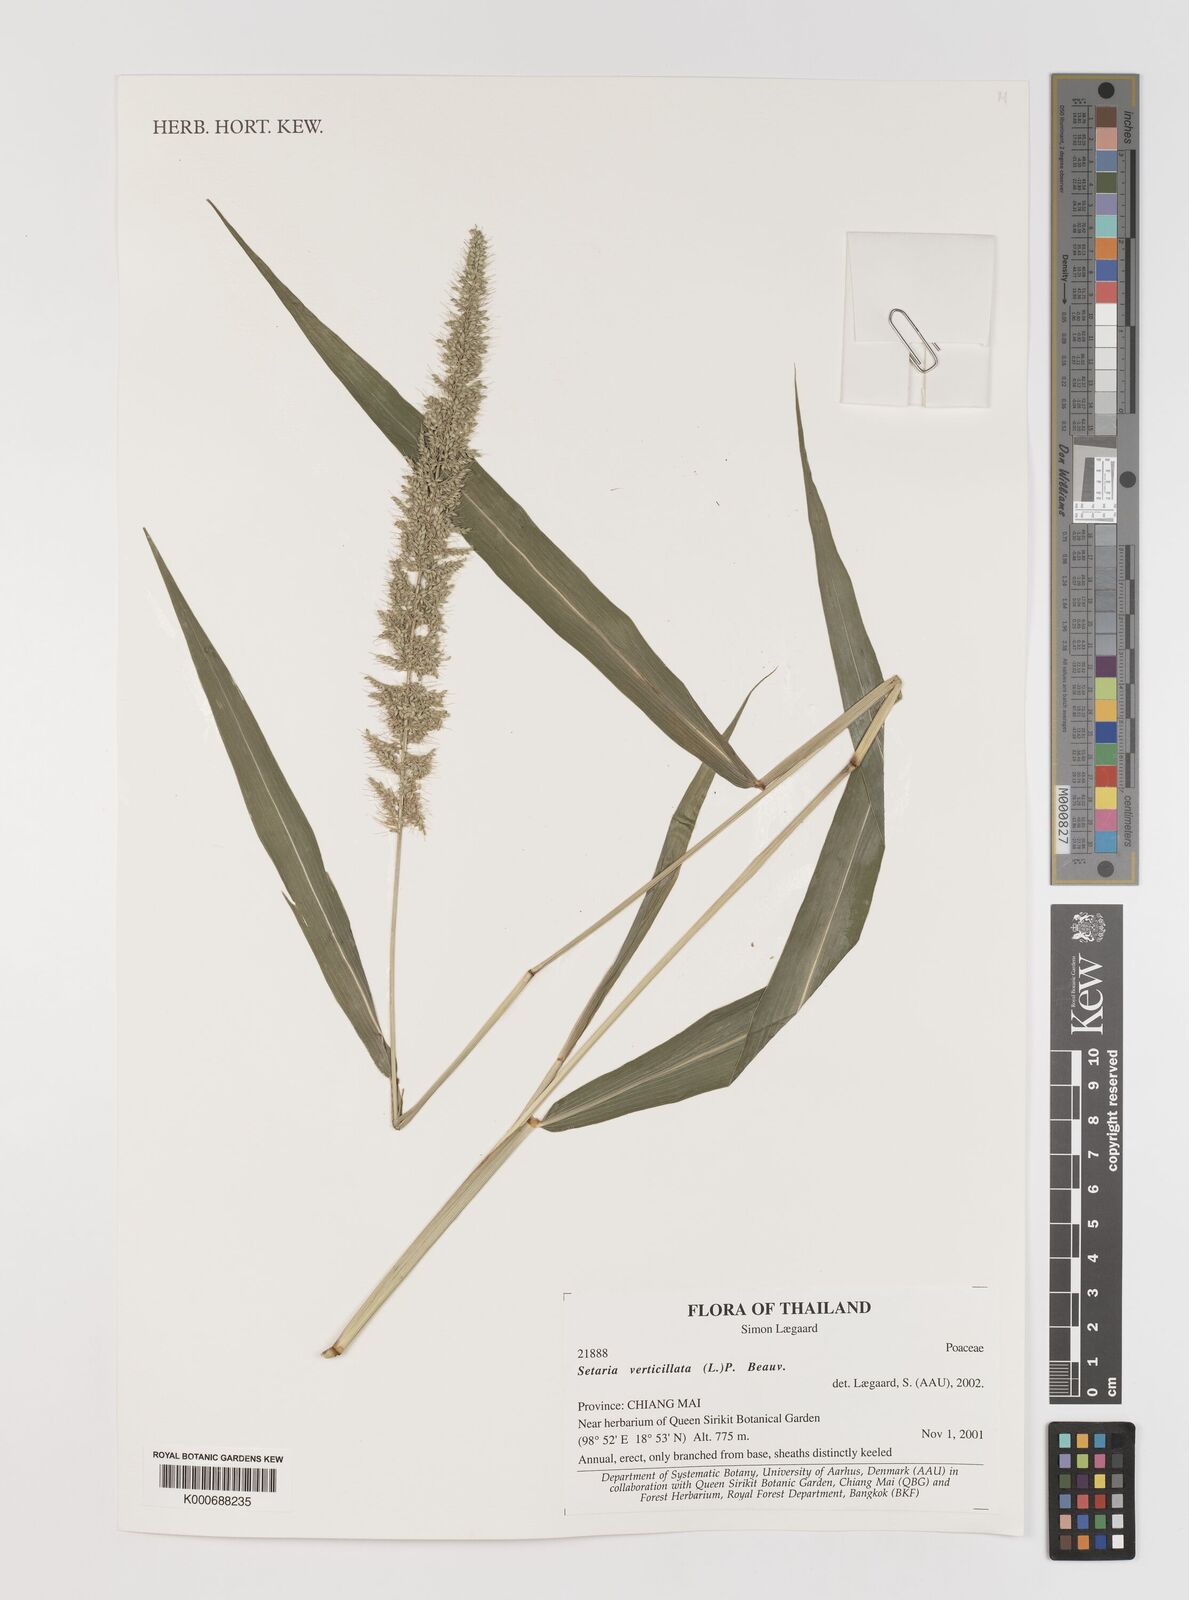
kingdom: Plantae
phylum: Tracheophyta
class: Liliopsida
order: Poales
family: Poaceae
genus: Setaria
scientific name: Setaria verticillata
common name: Hooked bristlegrass
